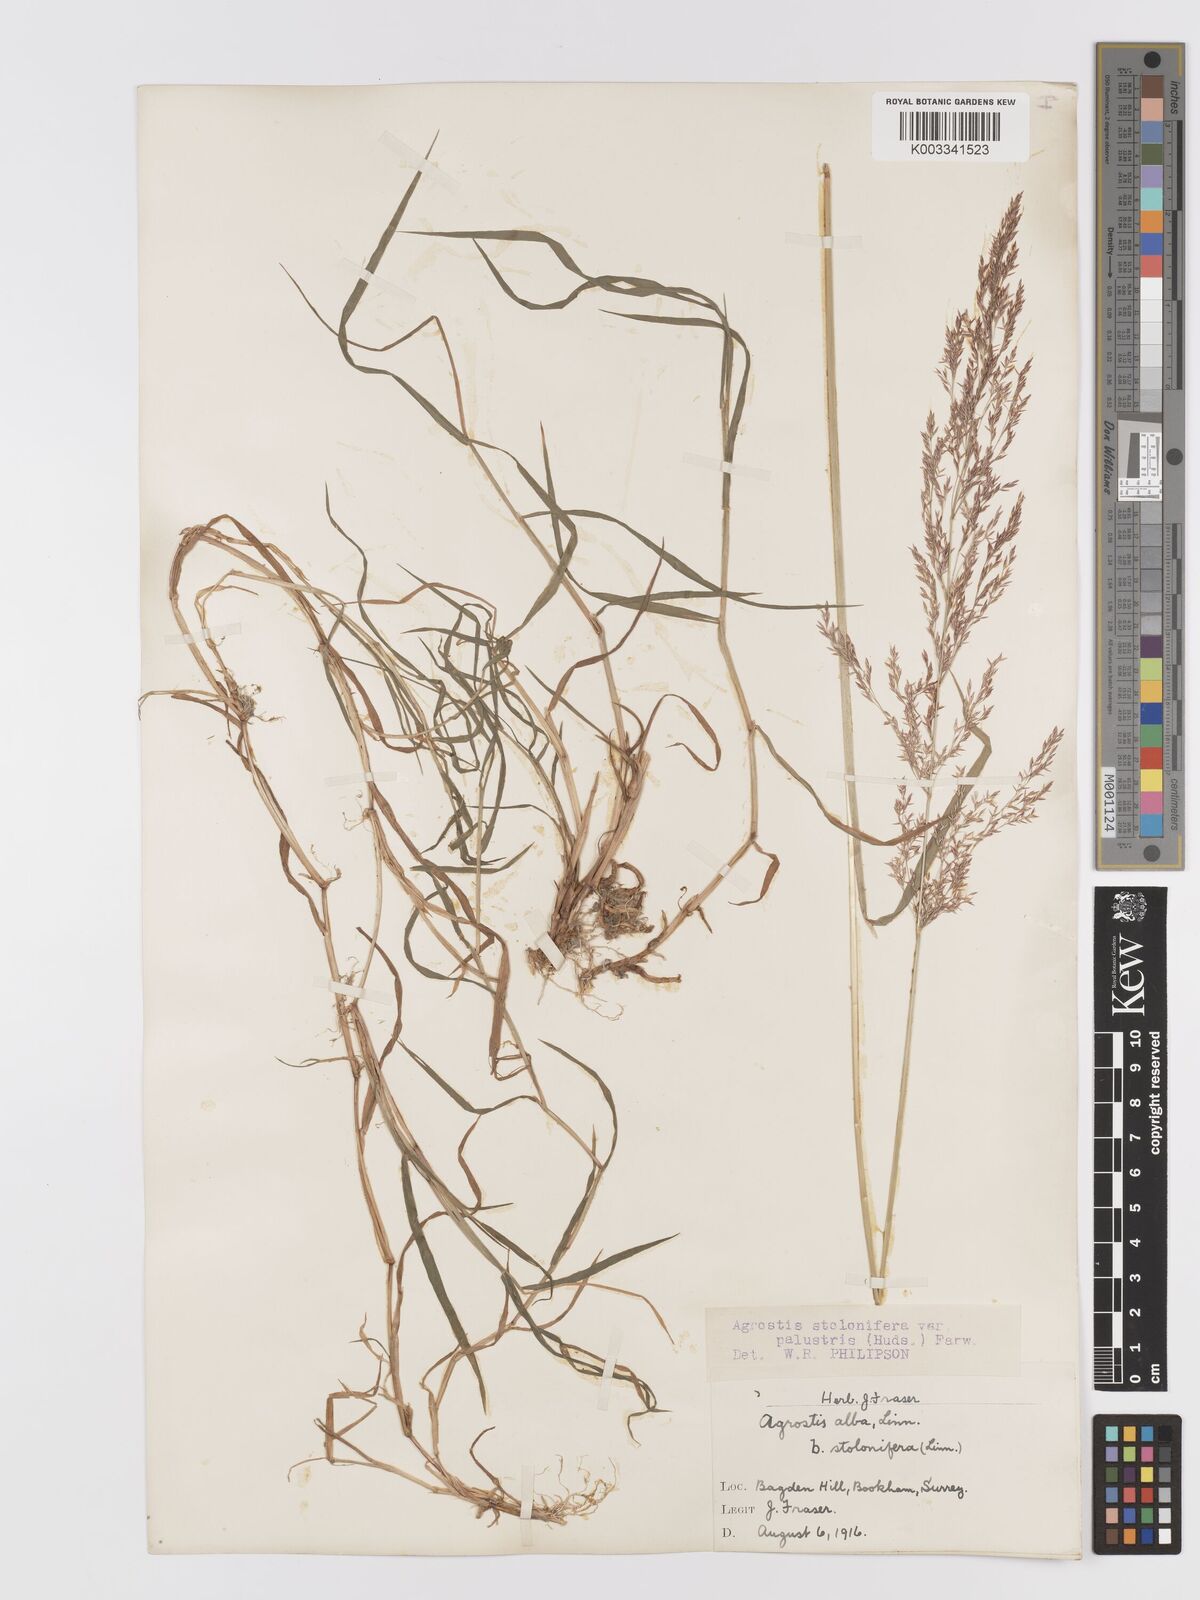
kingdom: Plantae
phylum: Tracheophyta
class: Liliopsida
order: Poales
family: Poaceae
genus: Agrostis
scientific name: Agrostis stolonifera
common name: Creeping bentgrass
